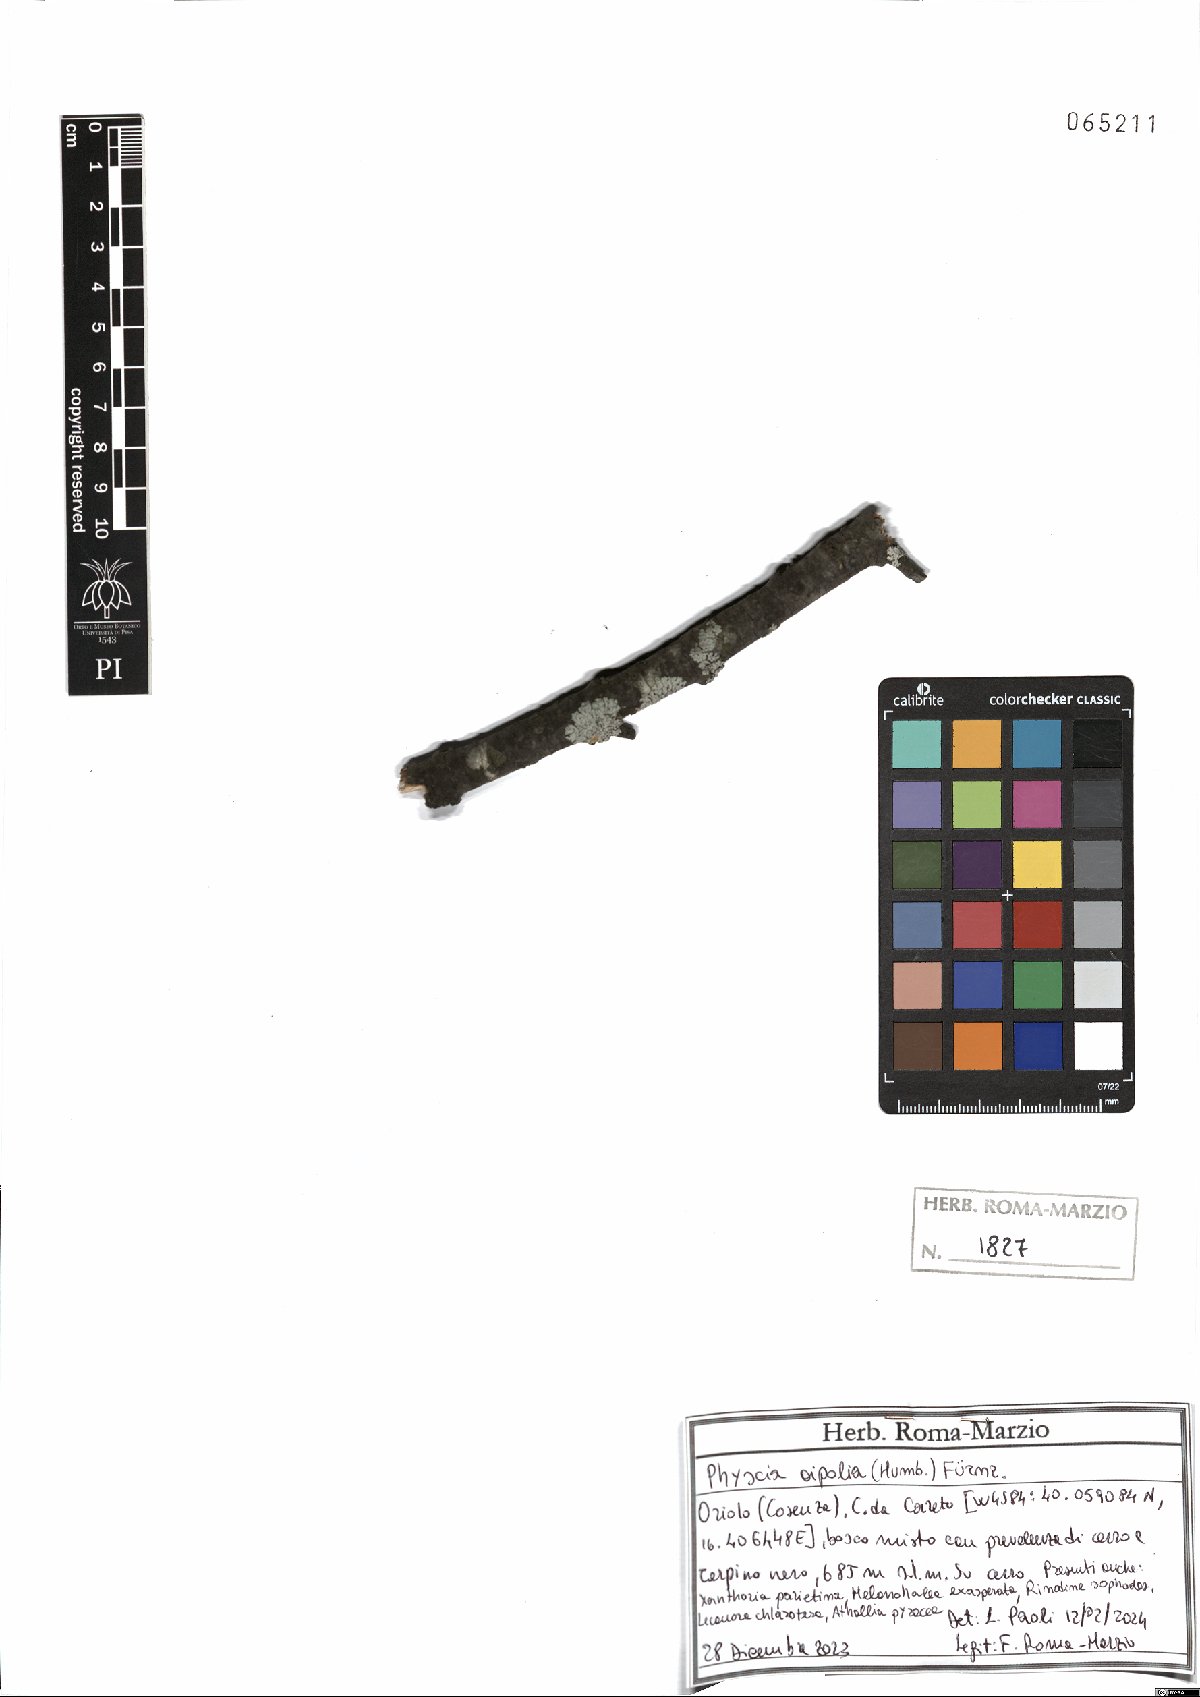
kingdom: Fungi
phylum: Ascomycota
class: Lecanoromycetes
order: Caliciales
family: Physciaceae
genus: Physcia
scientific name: Physcia aipolia
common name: Hoary rosette lichen
